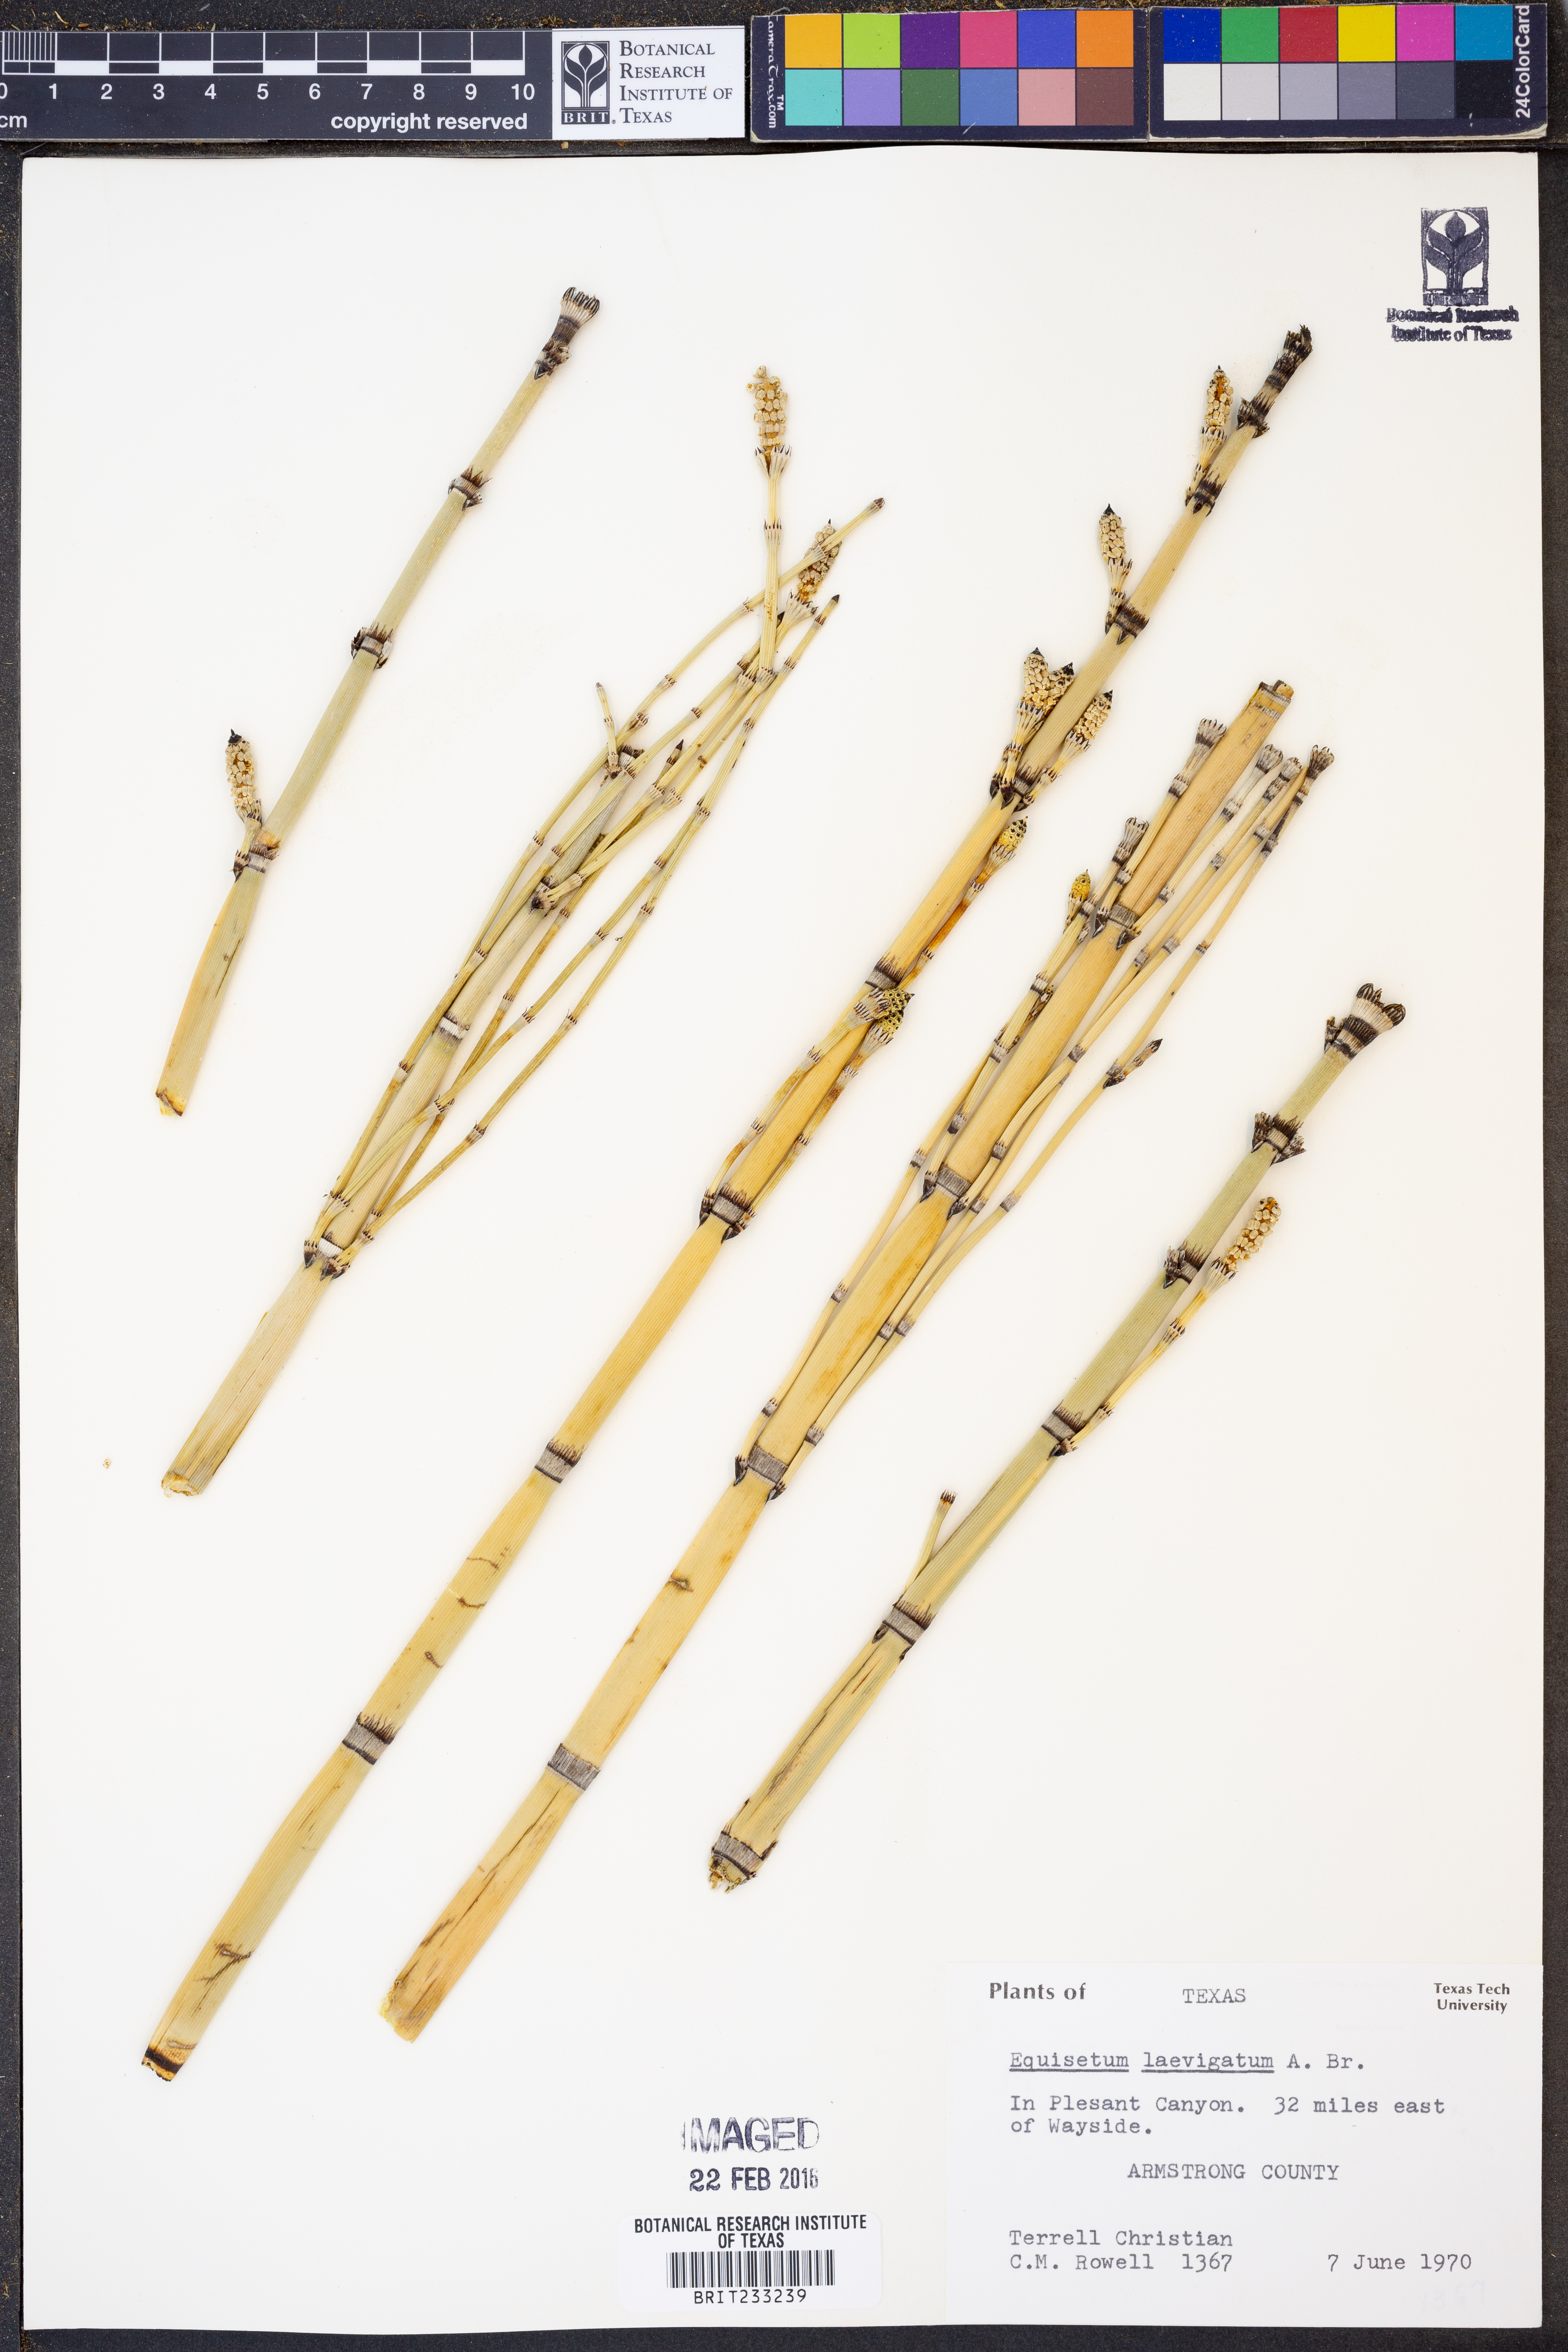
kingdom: Plantae
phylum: Tracheophyta
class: Polypodiopsida
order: Equisetales
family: Equisetaceae
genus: Equisetum
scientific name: Equisetum laevigatum
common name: Smooth scouring-rush
